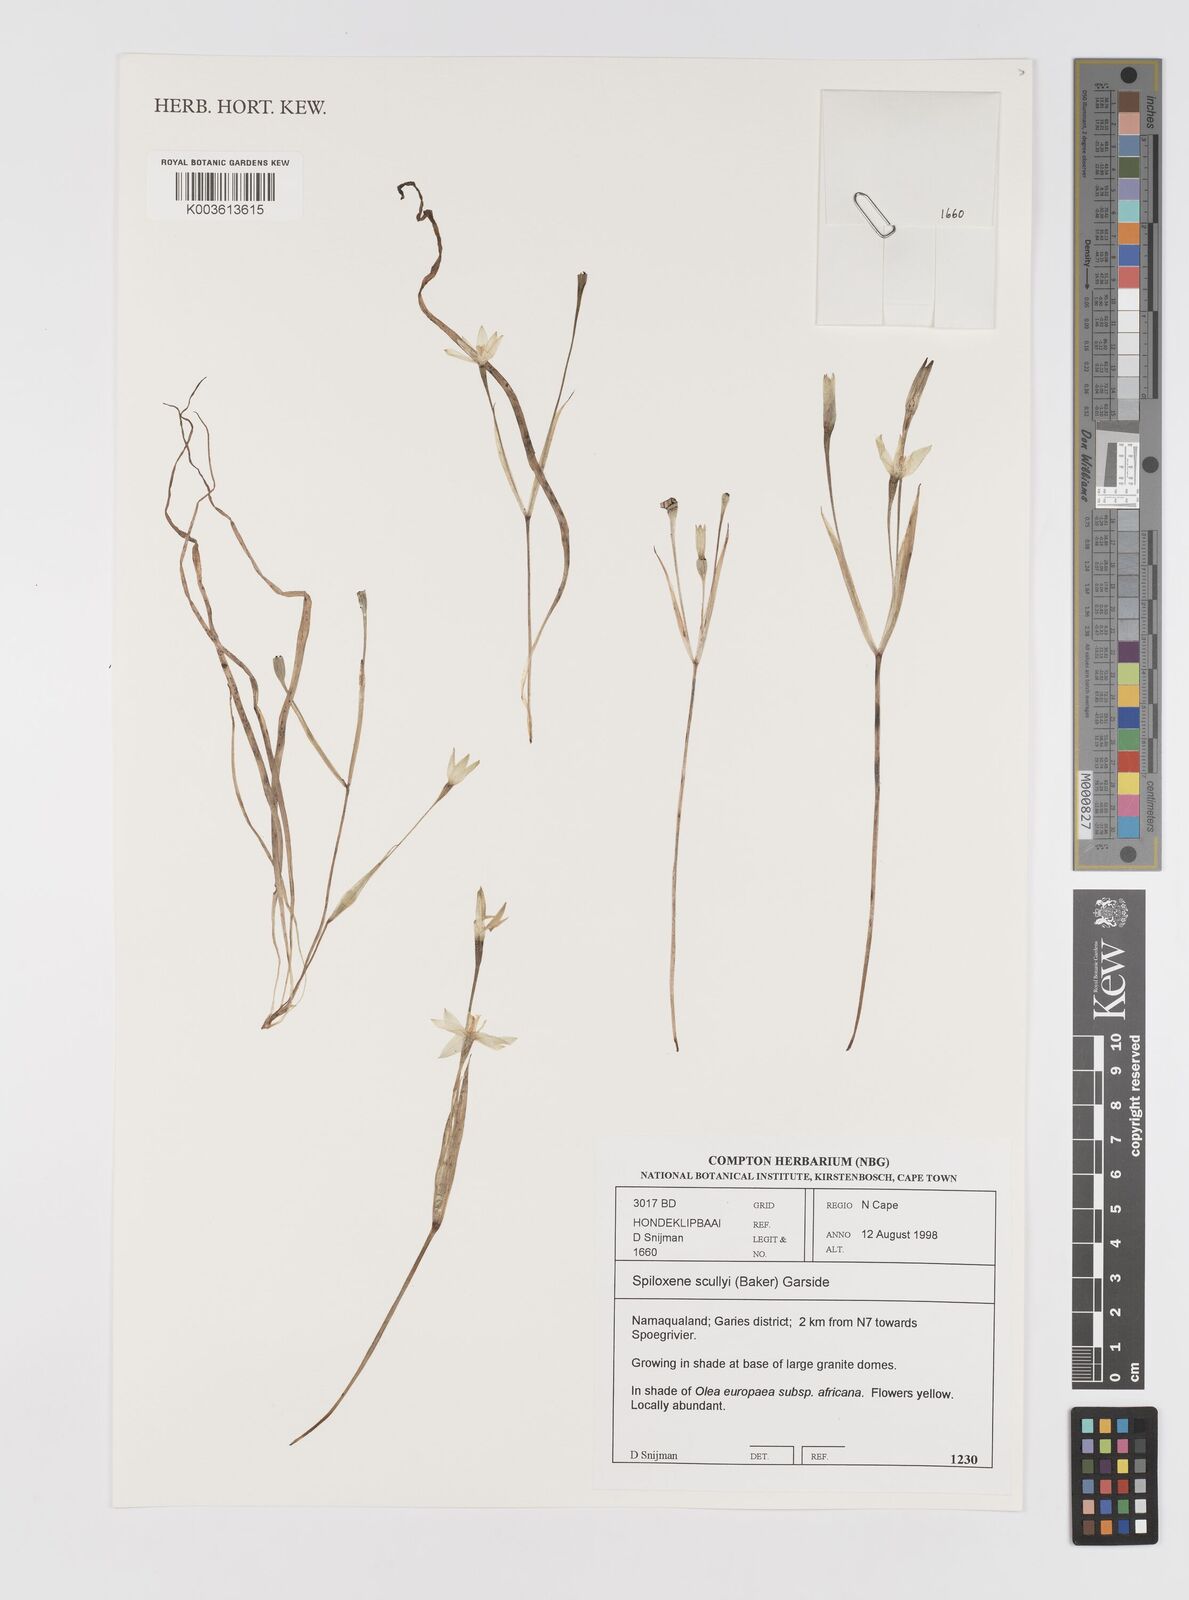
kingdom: Plantae
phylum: Tracheophyta
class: Liliopsida
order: Asparagales
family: Hypoxidaceae
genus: Pauridia
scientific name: Pauridia scullyi
